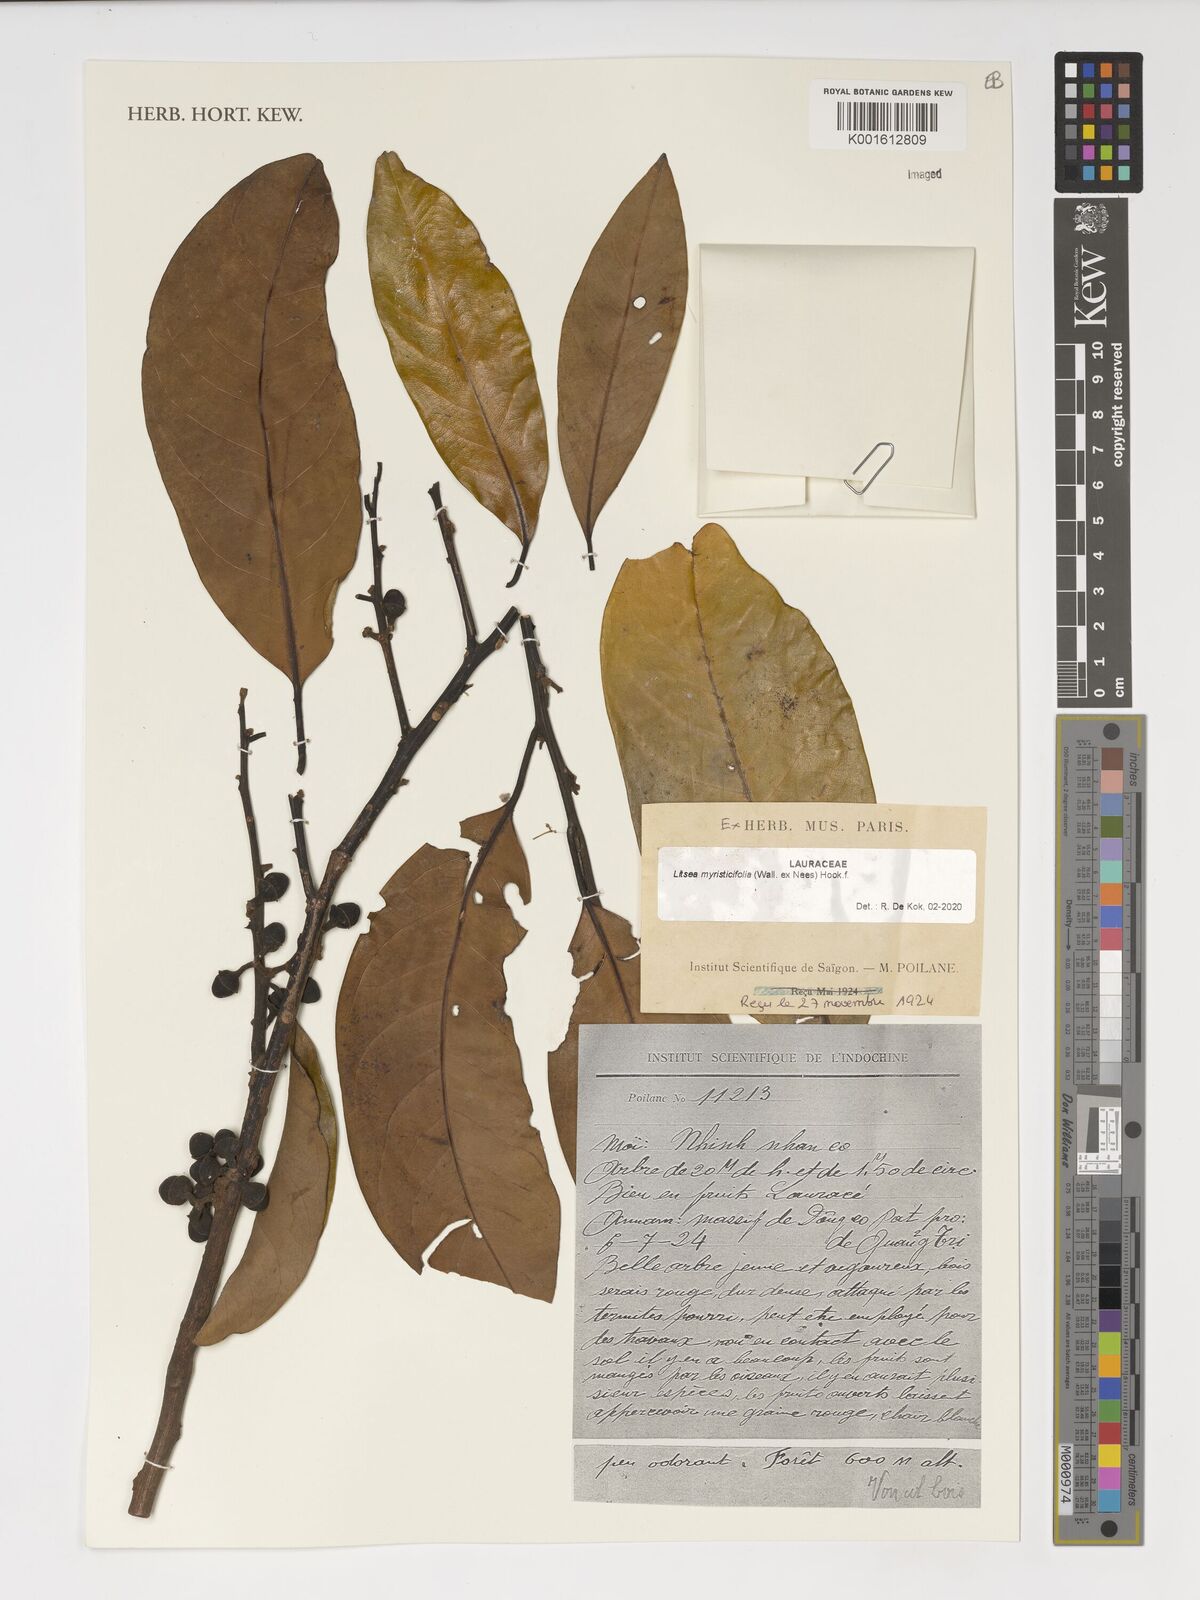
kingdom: Plantae
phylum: Tracheophyta
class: Magnoliopsida
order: Laurales
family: Lauraceae
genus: Litsea
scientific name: Litsea myristicifolia
